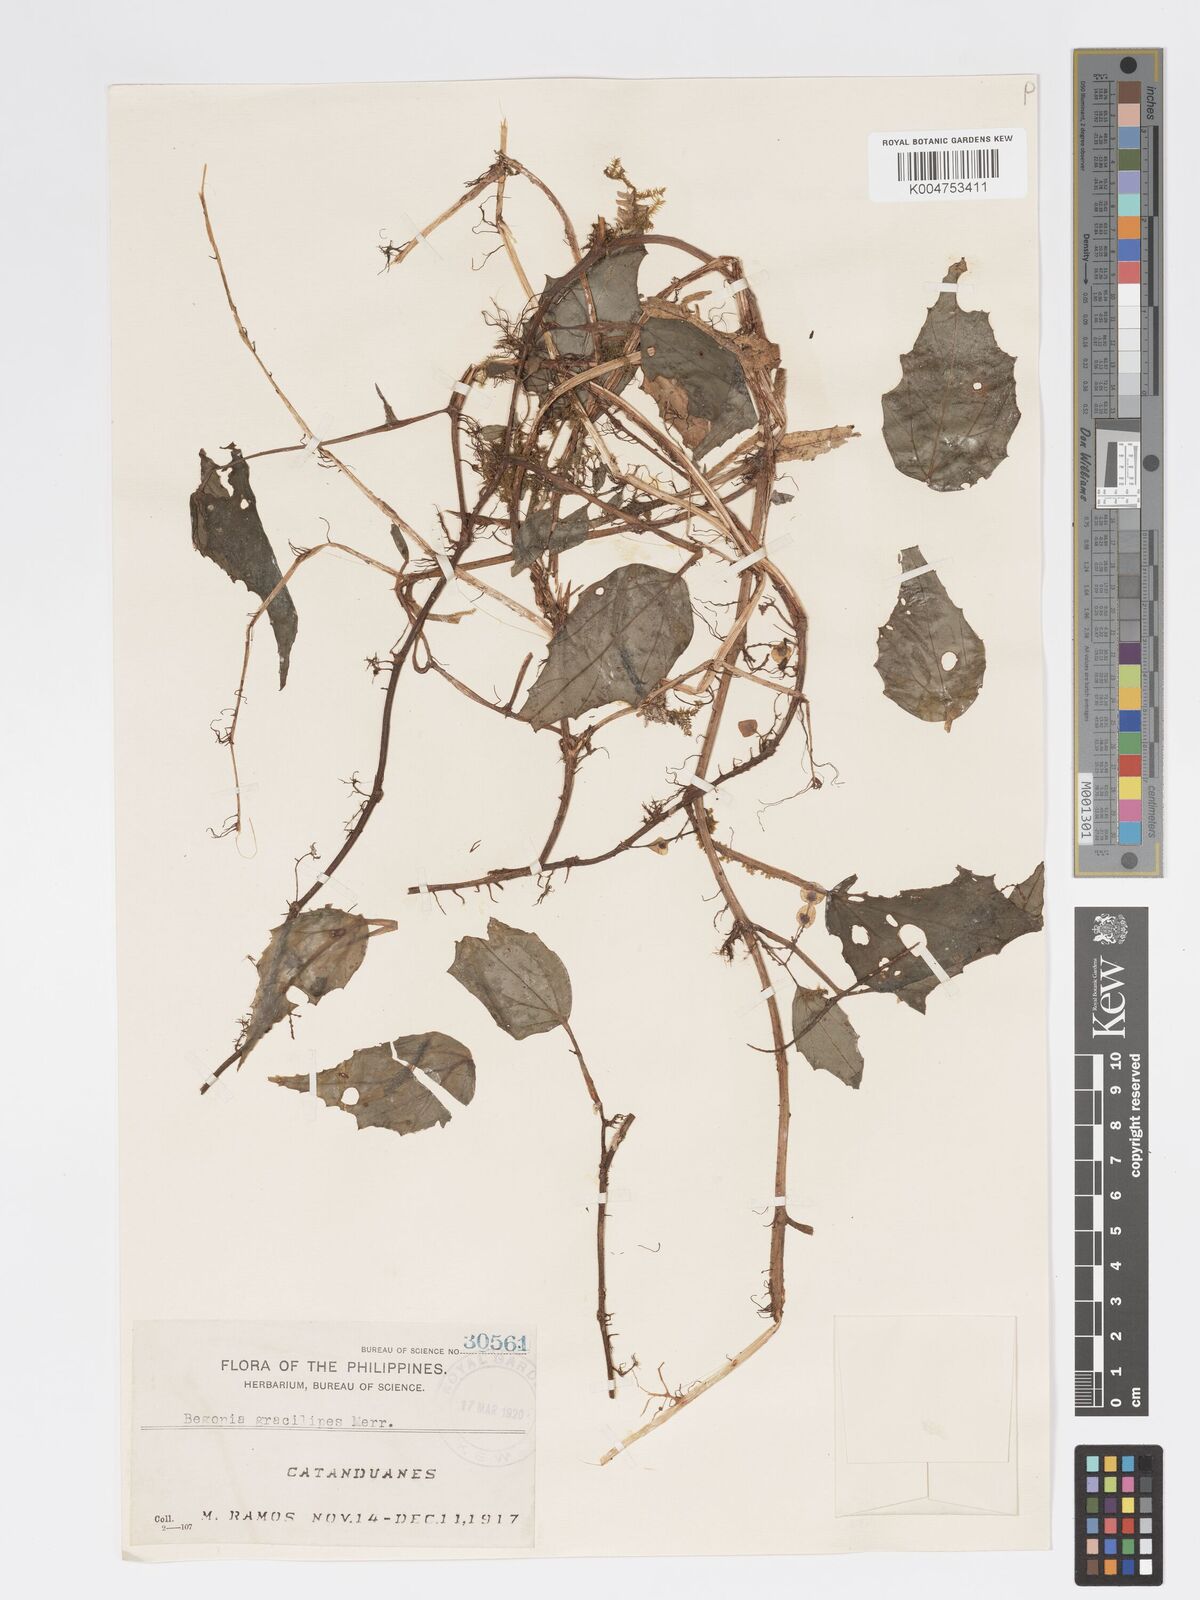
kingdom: Plantae
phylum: Tracheophyta
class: Magnoliopsida
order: Cucurbitales
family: Begoniaceae
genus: Begonia
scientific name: Begonia gracilipes
